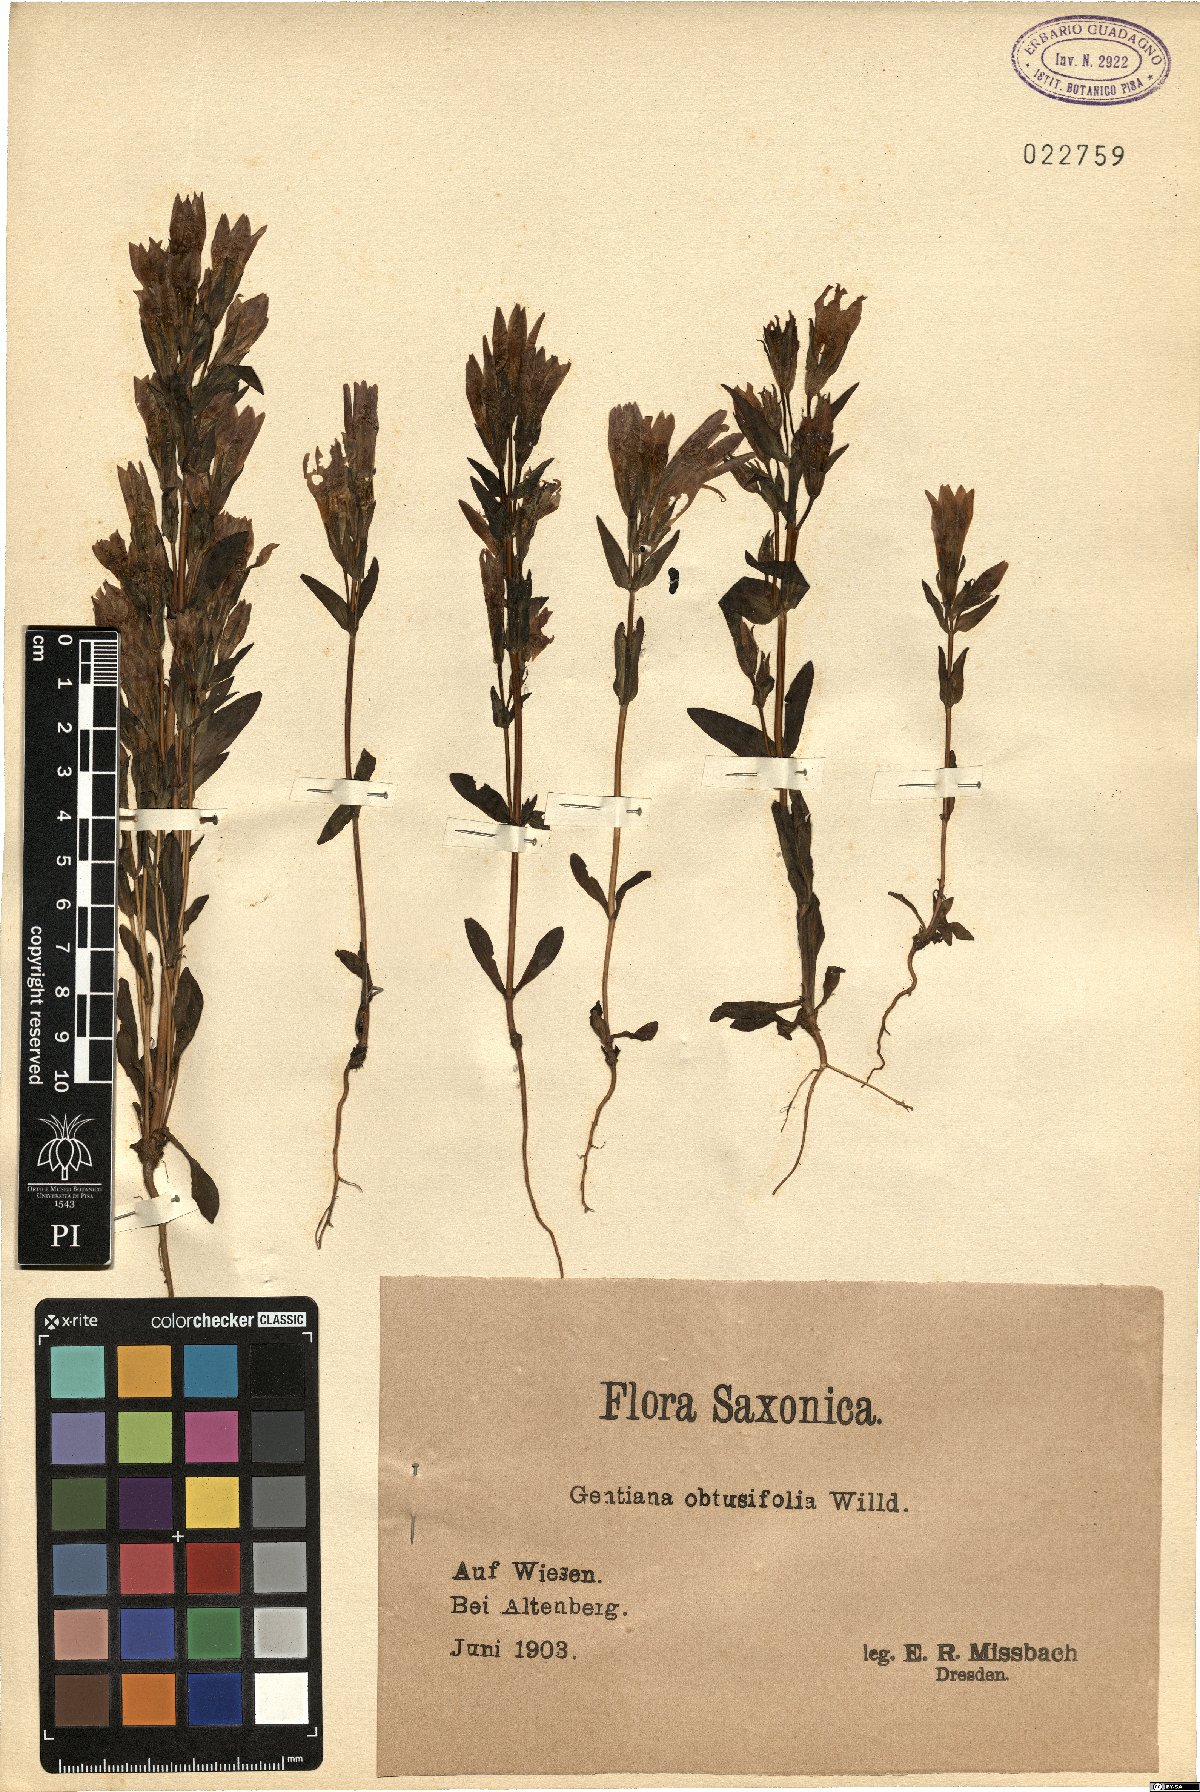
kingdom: Plantae
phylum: Tracheophyta
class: Magnoliopsida
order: Gentianales
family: Gentianaceae
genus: Gentianella
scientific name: Gentianella obtusifolia
